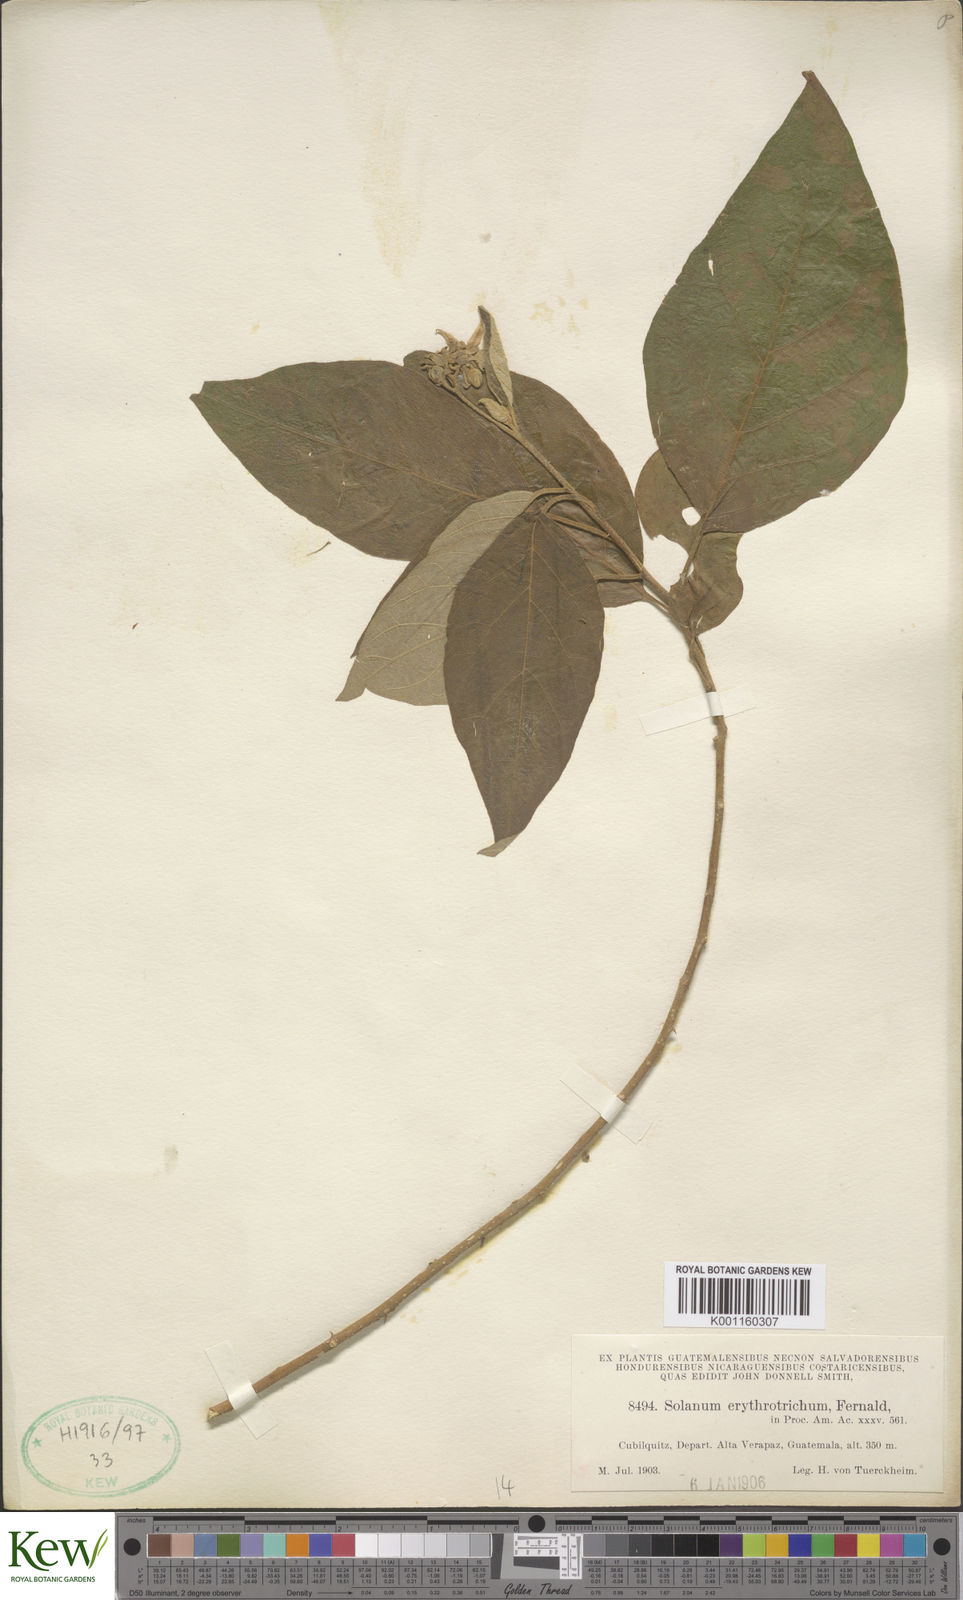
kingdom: Plantae
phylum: Tracheophyta
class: Magnoliopsida
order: Solanales
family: Solanaceae
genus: Solanum
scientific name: Solanum erythrotrichum
